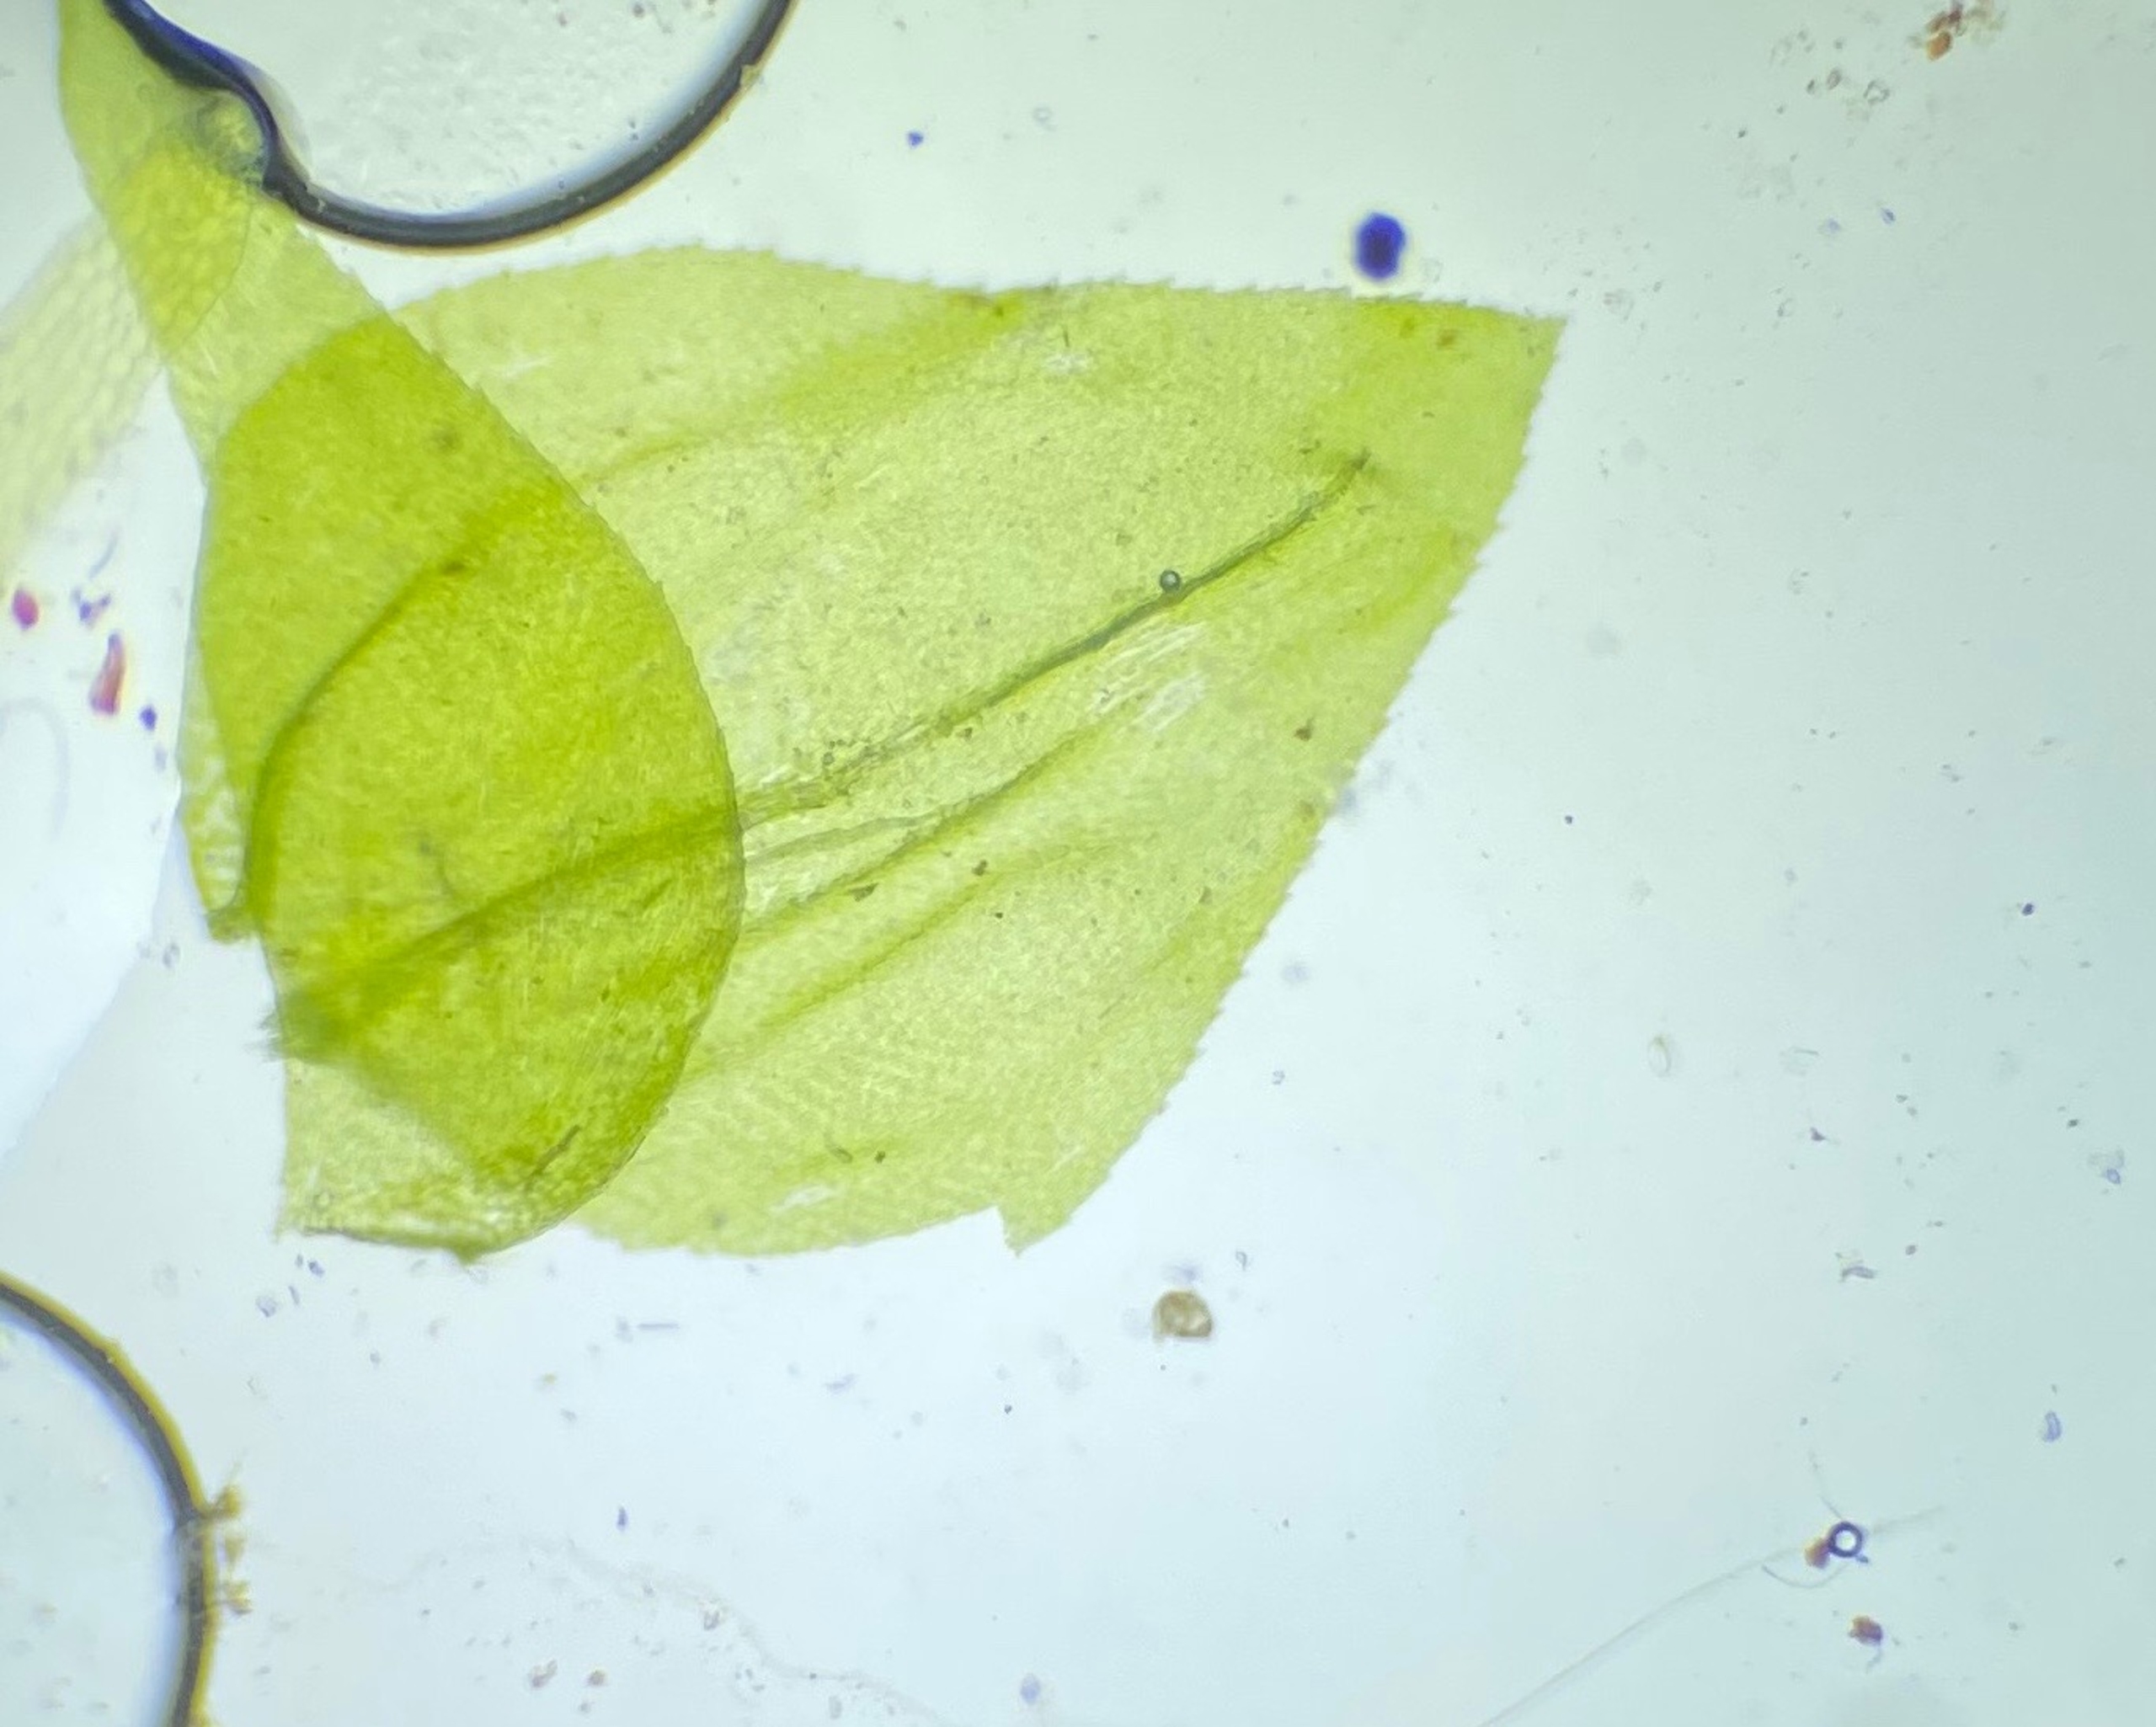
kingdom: Plantae
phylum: Bryophyta
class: Bryopsida
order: Hypnales
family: Brachytheciaceae
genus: Eurhynchium
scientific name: Eurhynchium angustirete
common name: Stor næbmos
